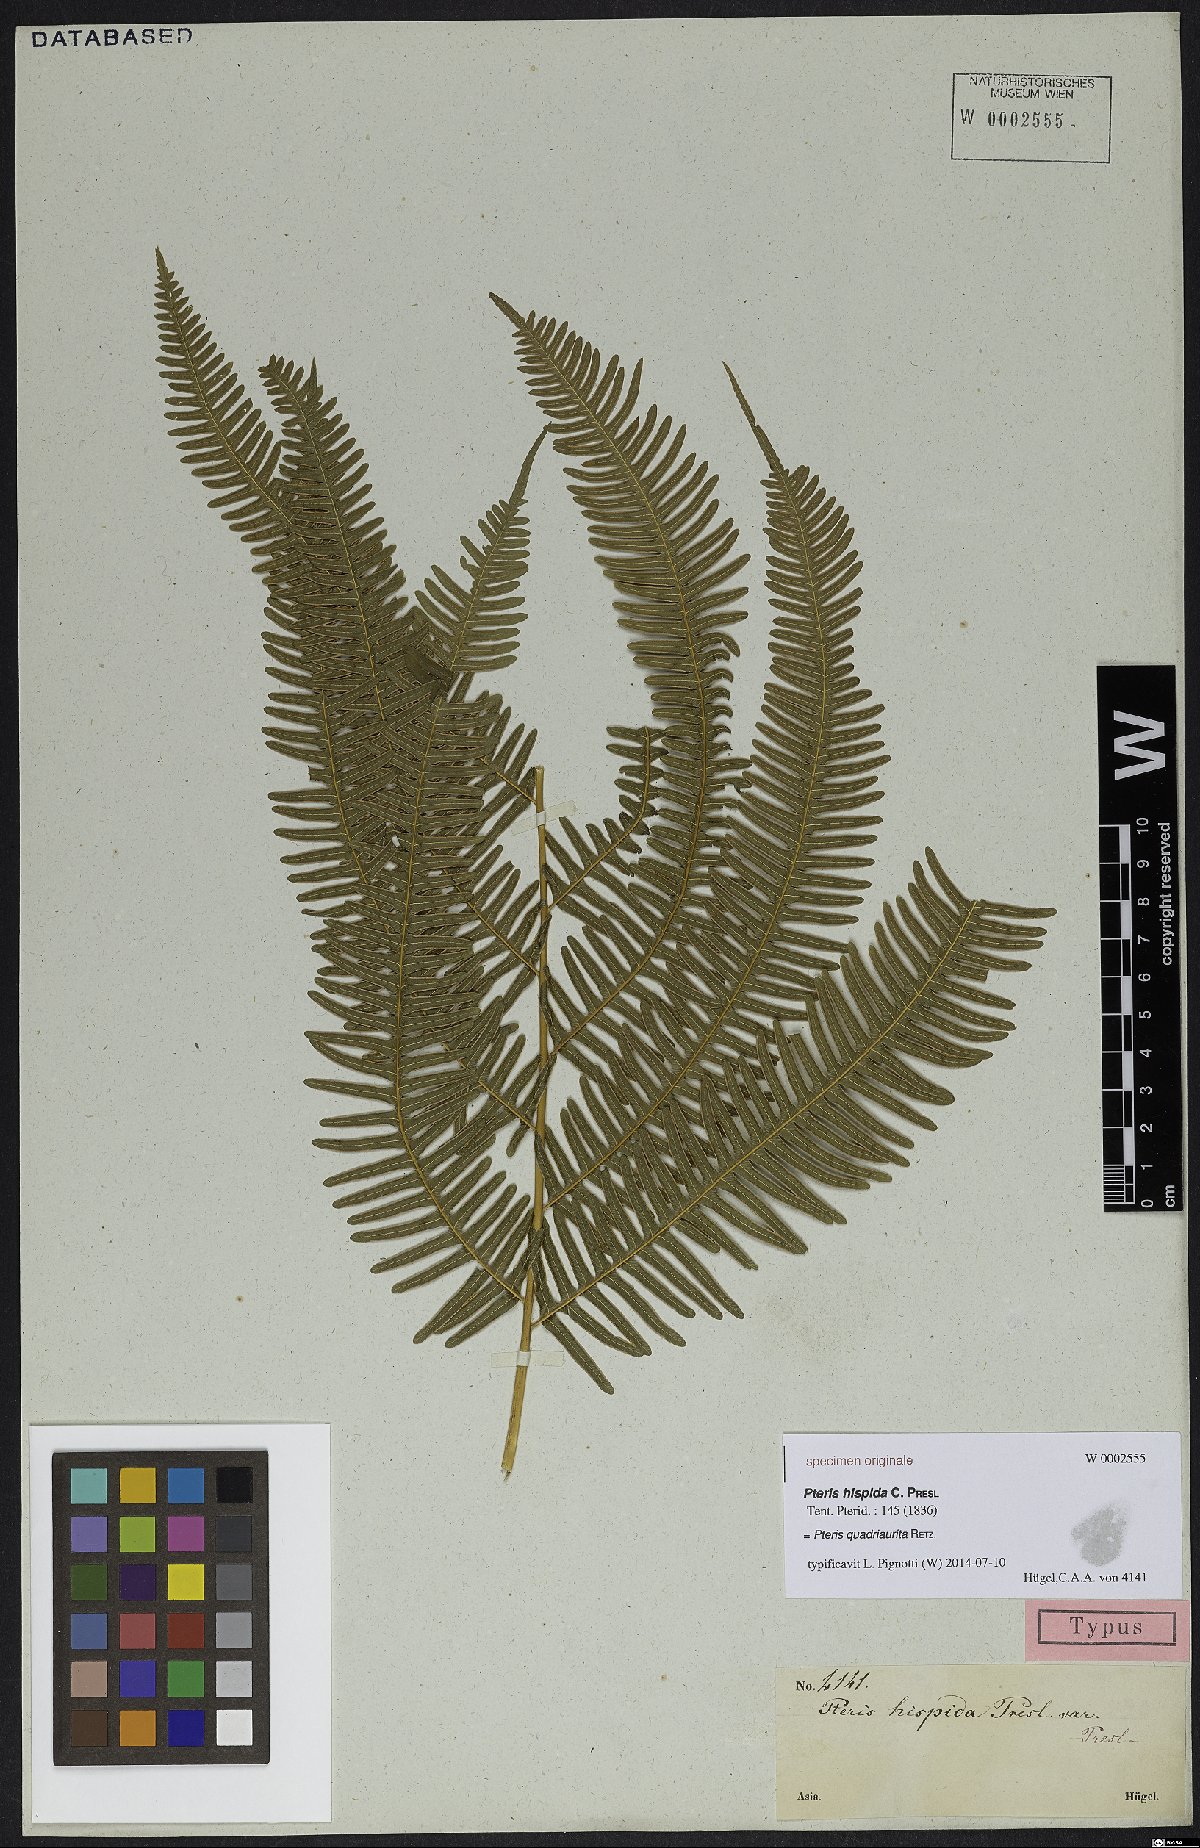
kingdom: Plantae
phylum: Tracheophyta
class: Polypodiopsida
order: Polypodiales
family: Pteridaceae
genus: Pteris
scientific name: Pteris quadriaurita
